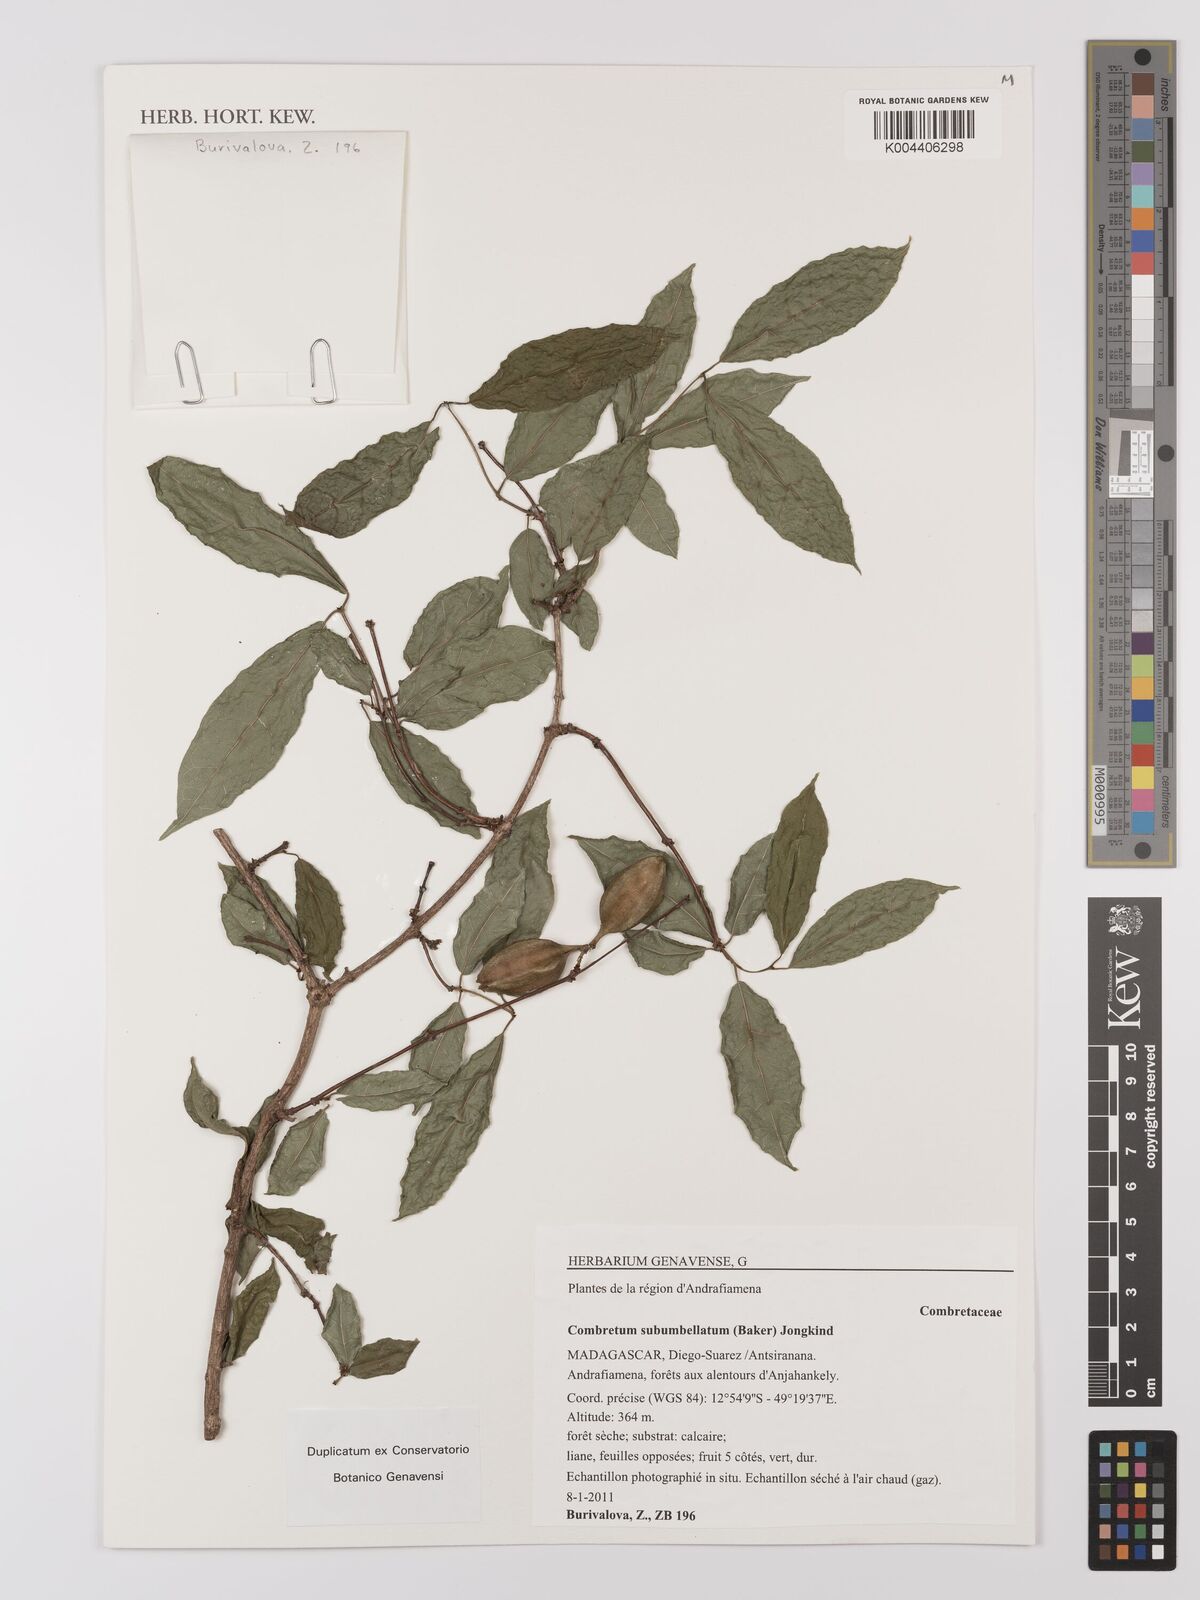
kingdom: Plantae
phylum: Tracheophyta
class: Magnoliopsida
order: Myrtales
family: Combretaceae
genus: Combretum
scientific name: Combretum subumbellatum
